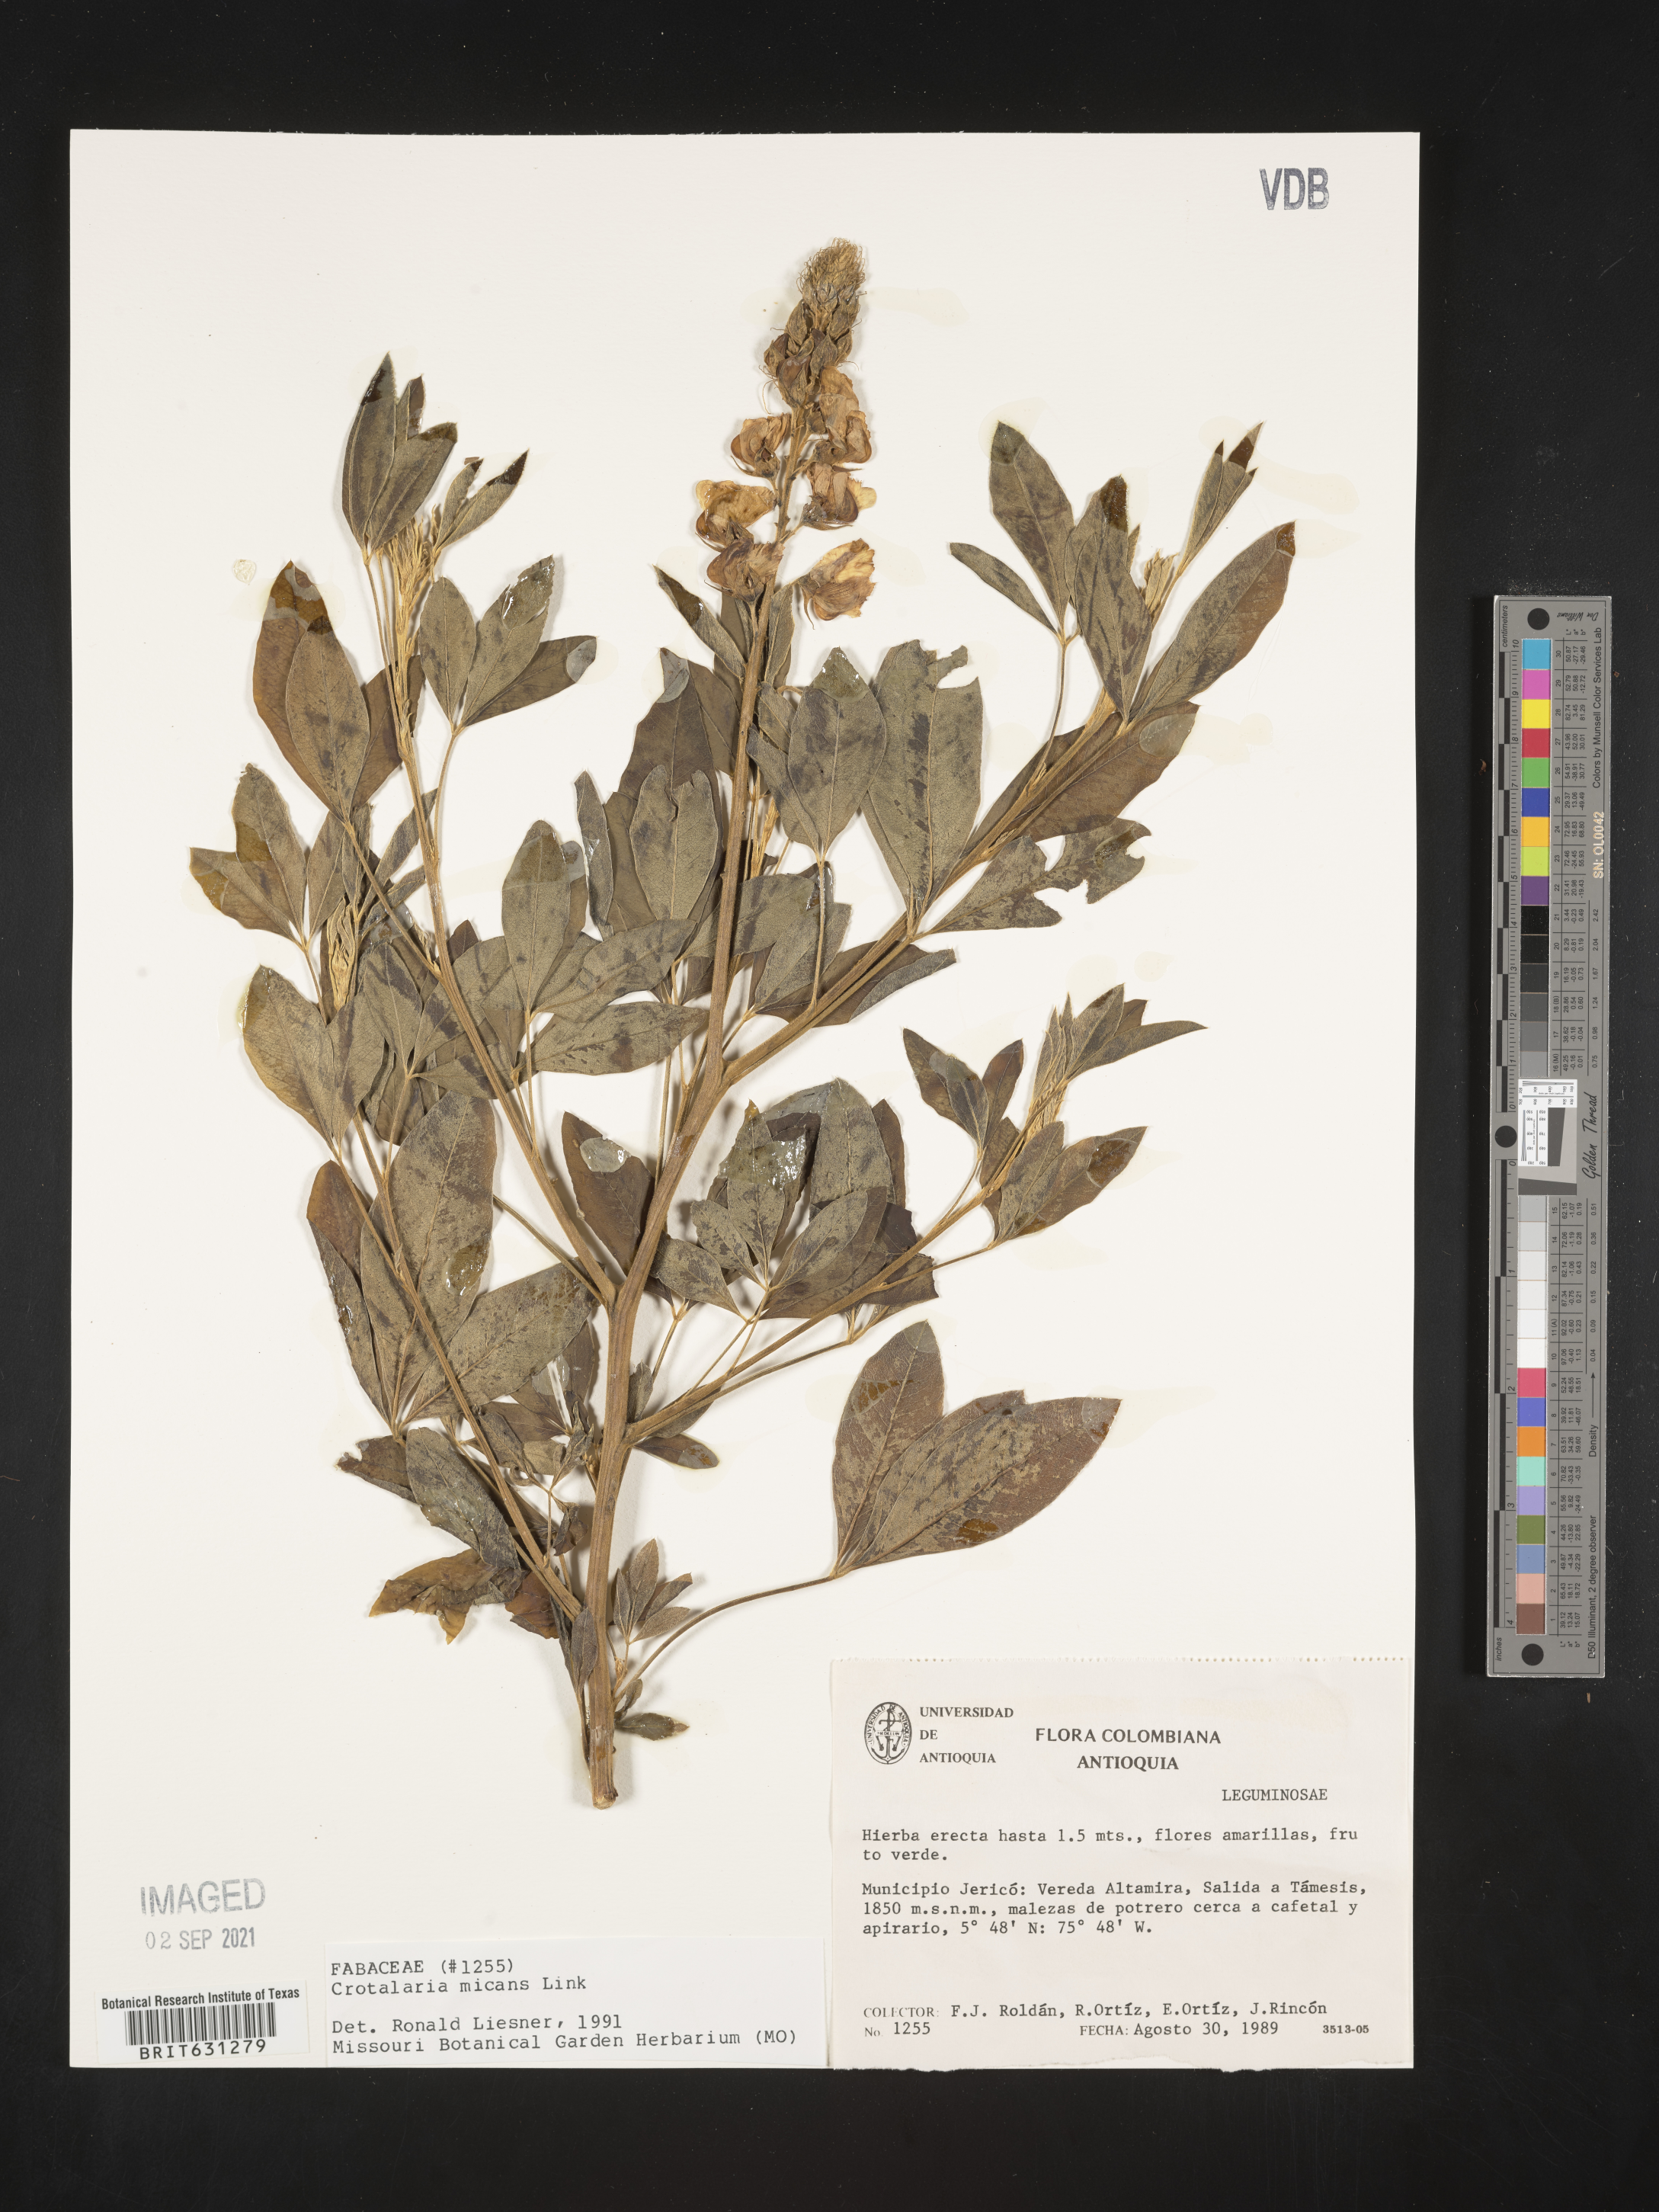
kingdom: Plantae
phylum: Tracheophyta
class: Magnoliopsida
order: Fabales
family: Fabaceae
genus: Crotalaria
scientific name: Crotalaria micans
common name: Caracas rattlebox
